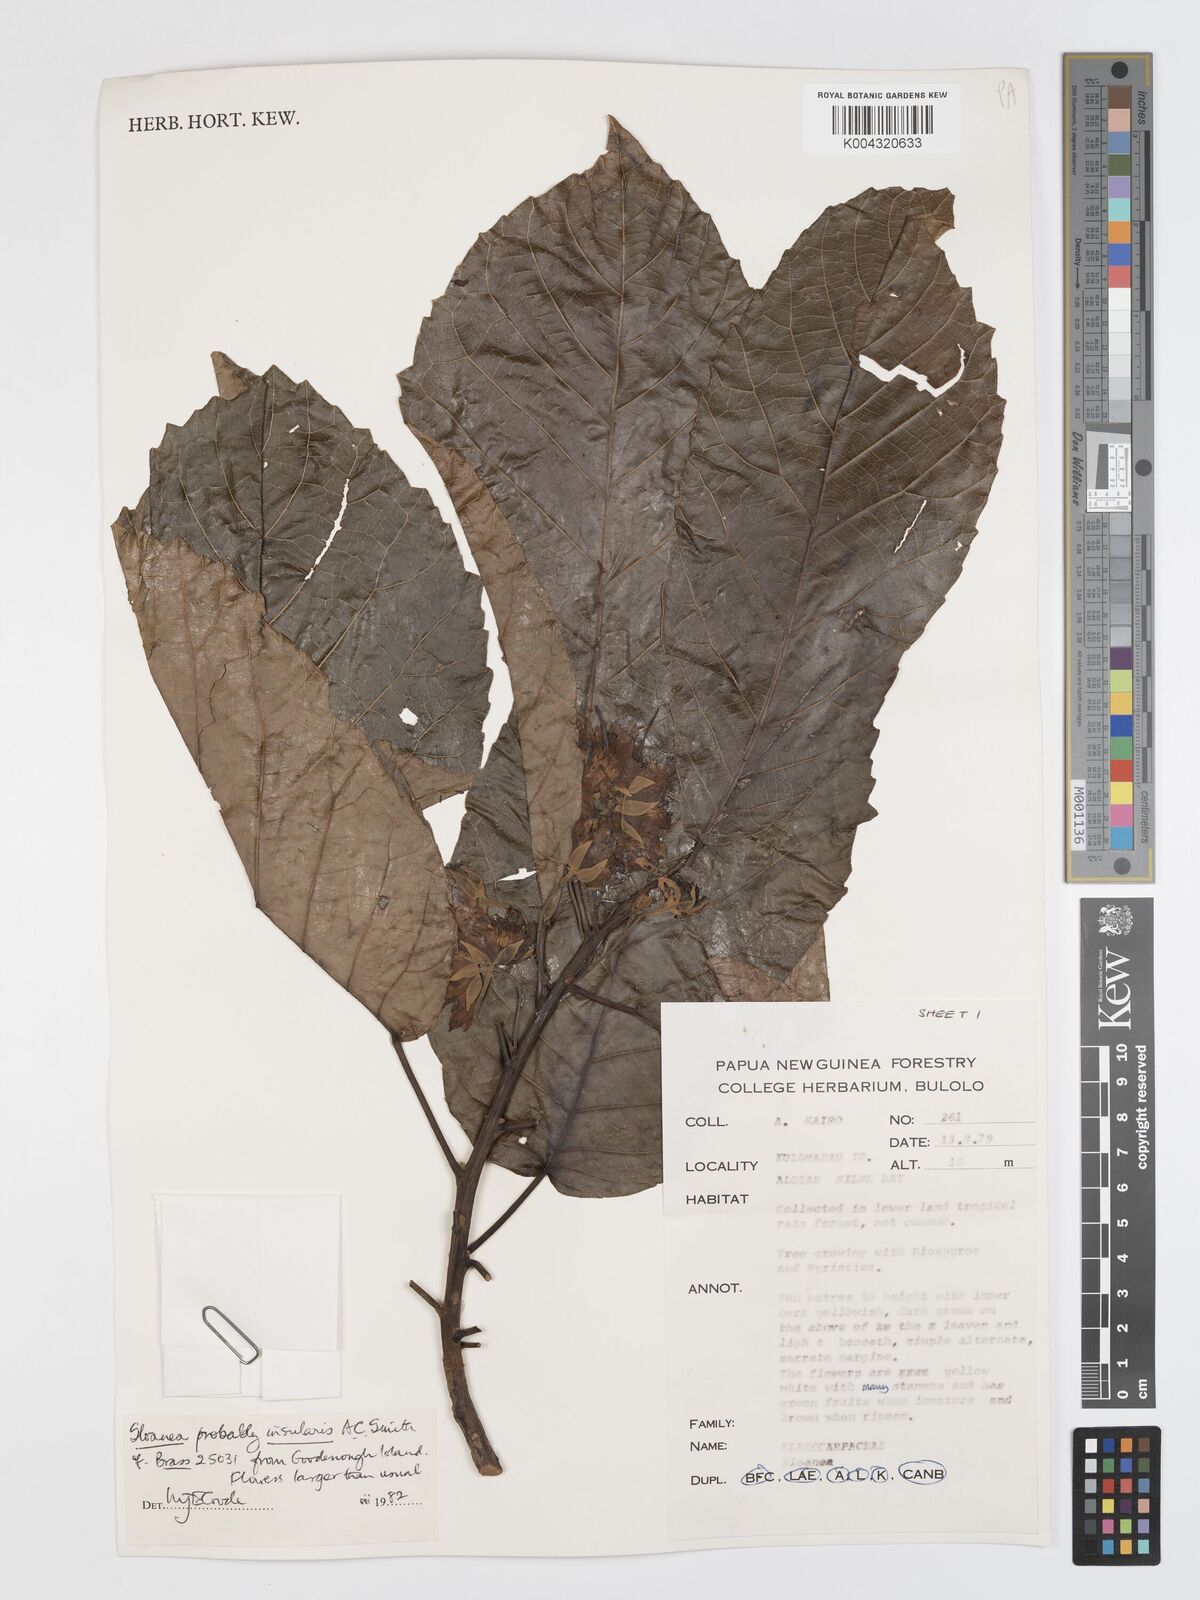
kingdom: Plantae
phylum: Tracheophyta
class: Magnoliopsida
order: Oxalidales
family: Elaeocarpaceae
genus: Sloanea
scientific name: Sloanea insularis
